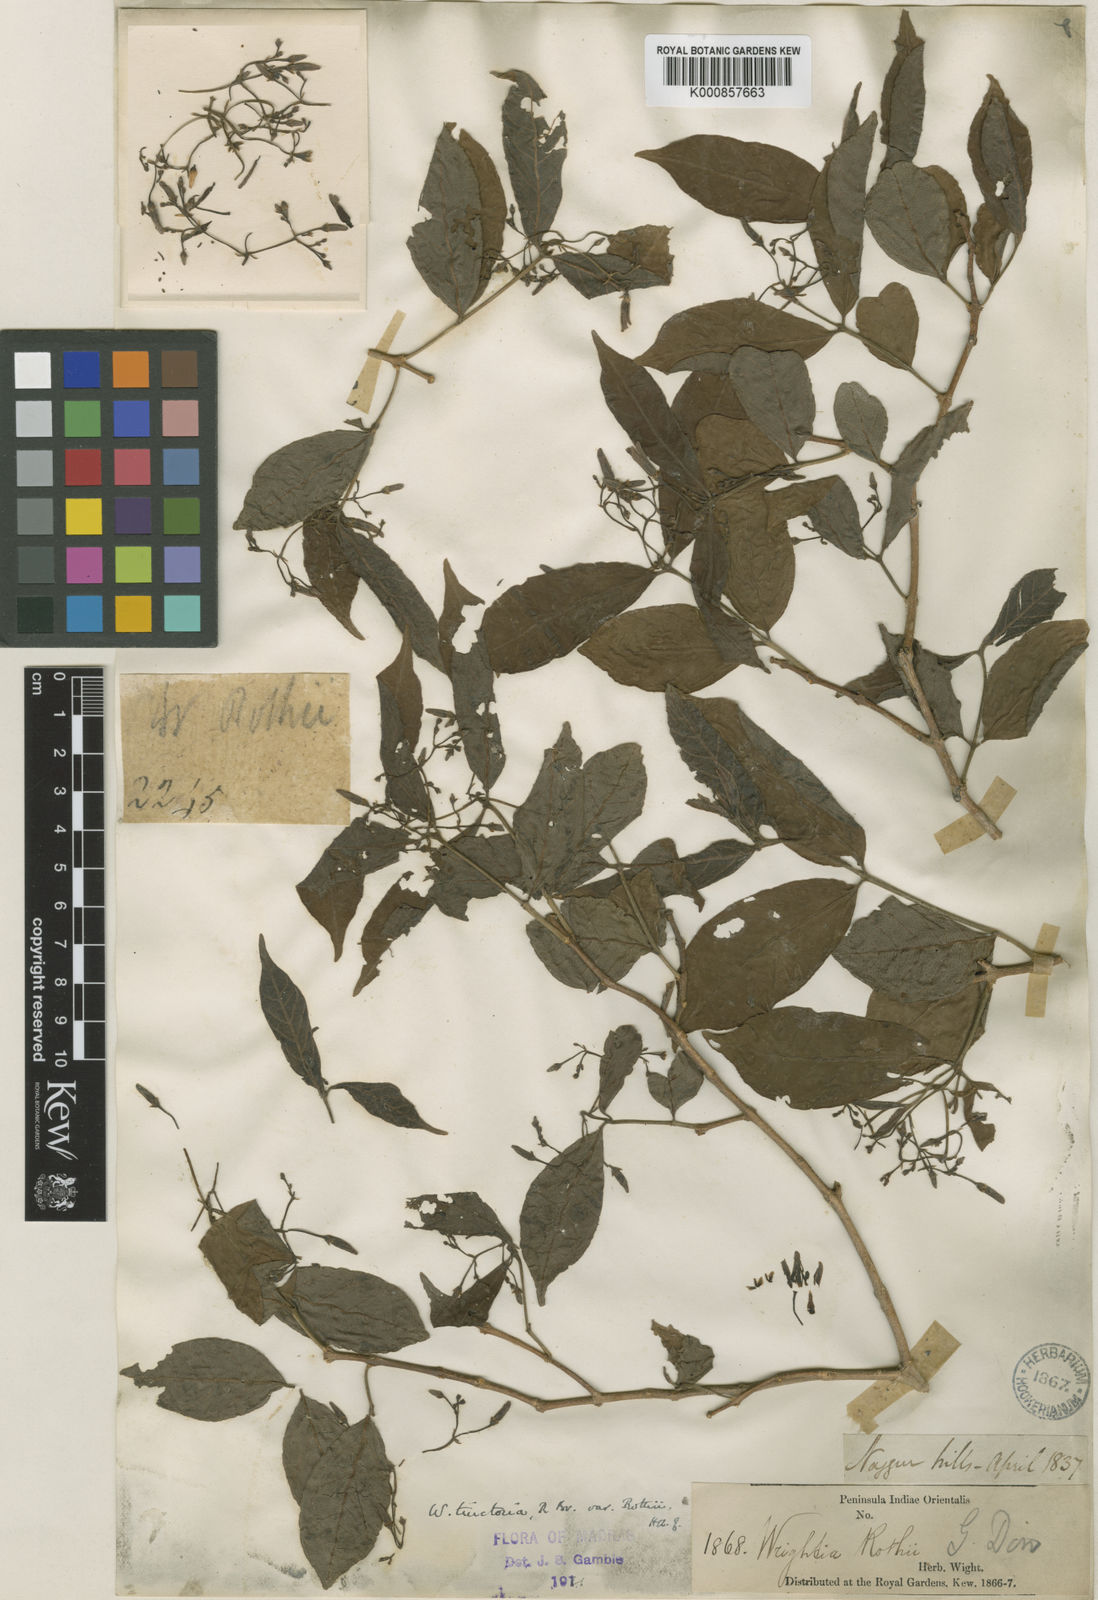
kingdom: Plantae
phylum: Tracheophyta
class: Magnoliopsida
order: Gentianales
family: Apocynaceae
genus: Wrightia
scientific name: Wrightia tinctoria
